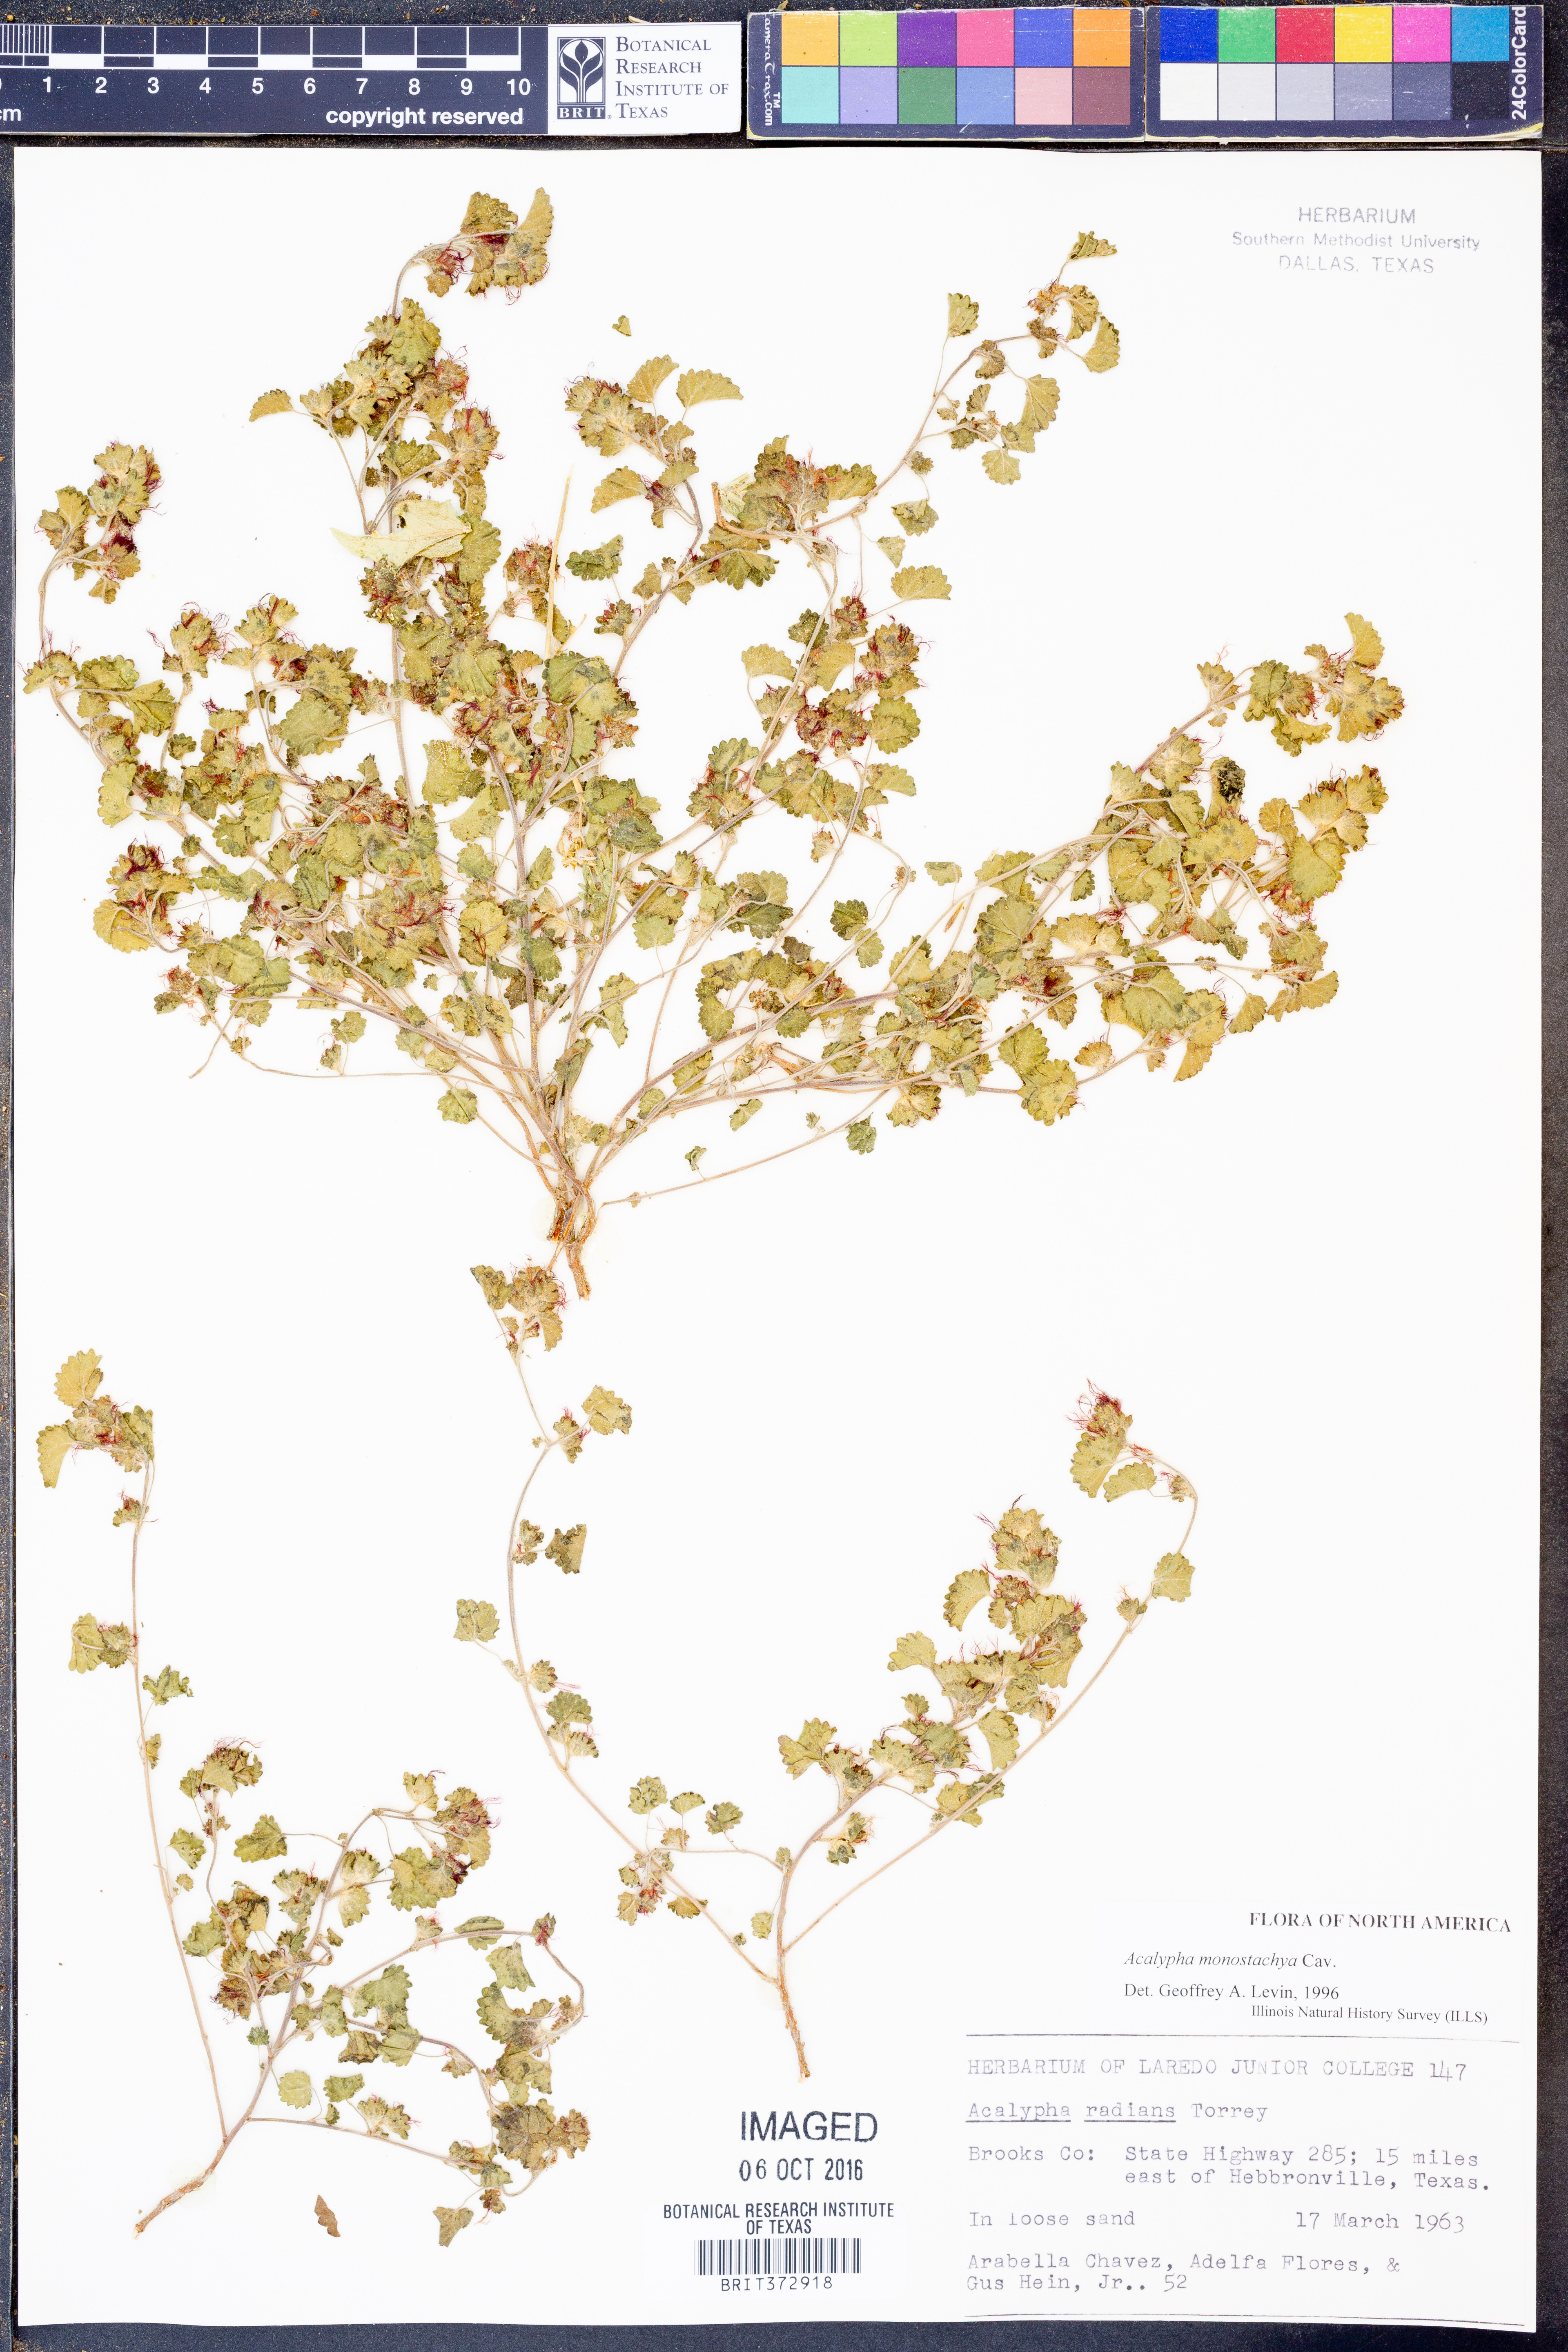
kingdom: Plantae
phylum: Tracheophyta
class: Magnoliopsida
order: Malpighiales
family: Euphorbiaceae
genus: Acalypha
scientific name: Acalypha monostachya
